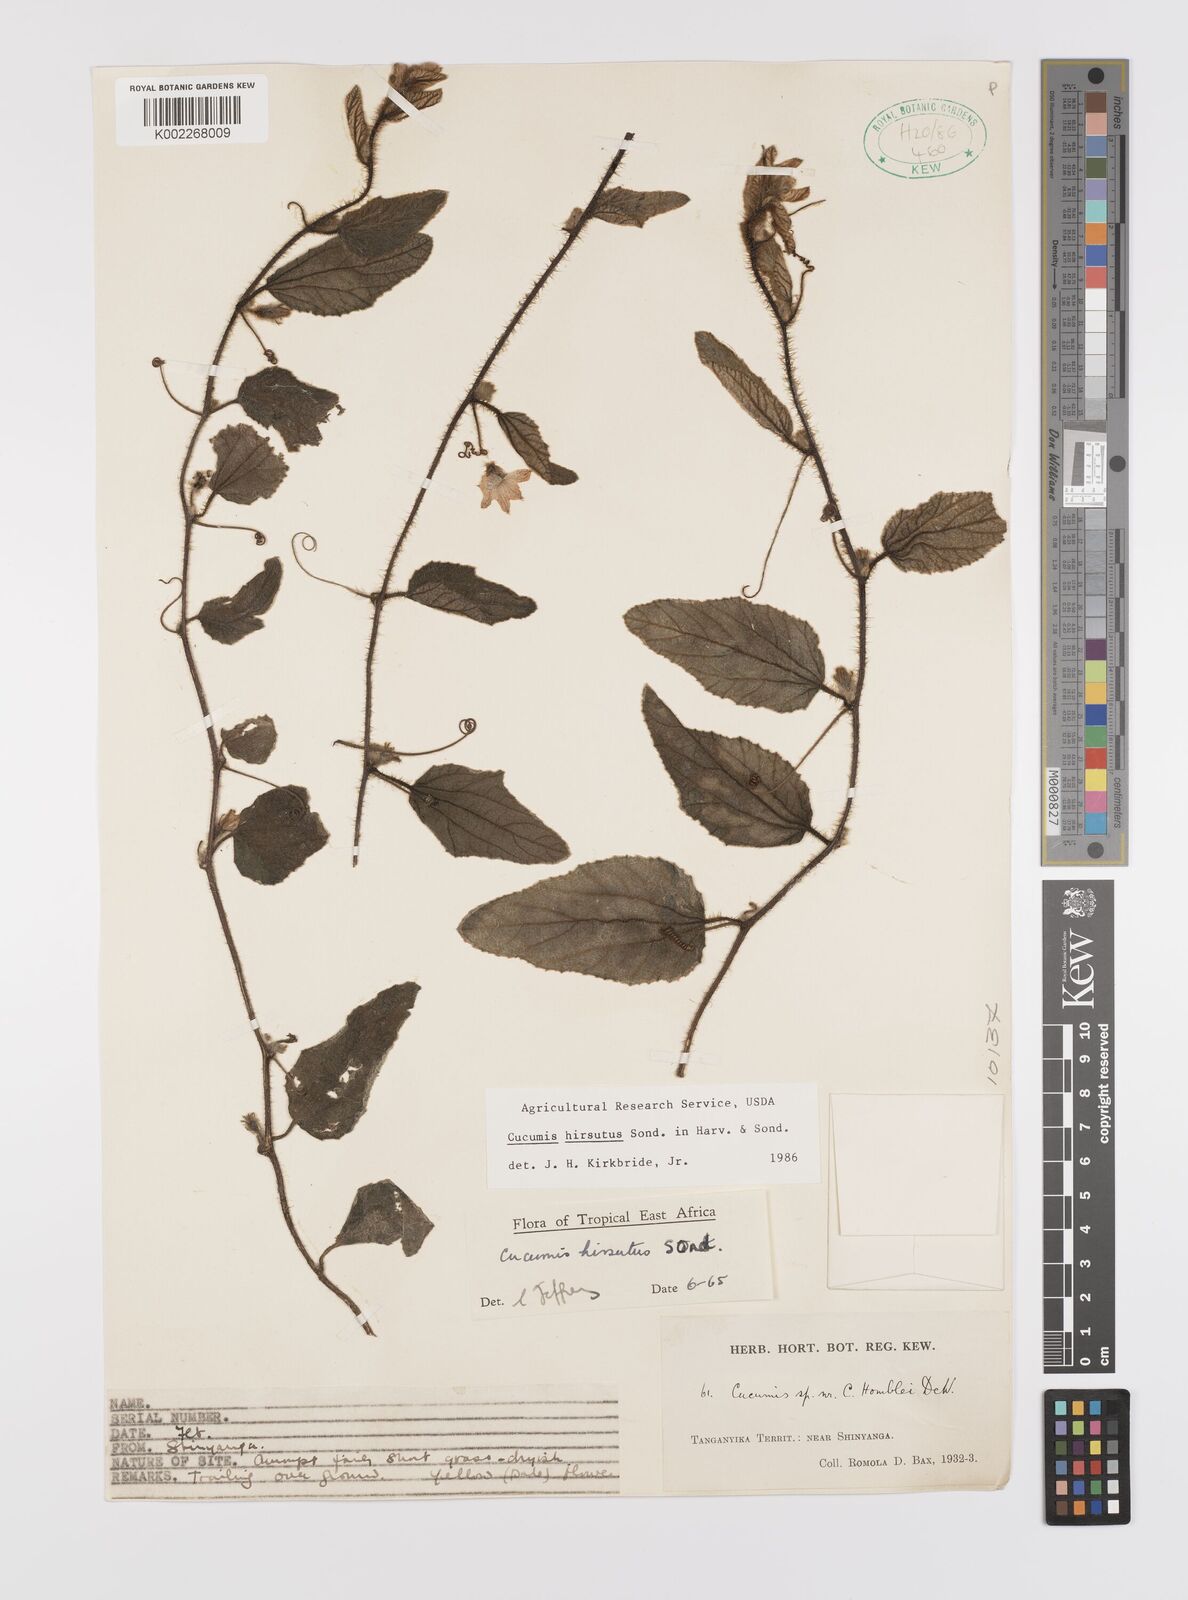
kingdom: Plantae
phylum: Tracheophyta
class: Magnoliopsida
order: Cucurbitales
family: Cucurbitaceae
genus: Cucumis
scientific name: Cucumis hirsutus
